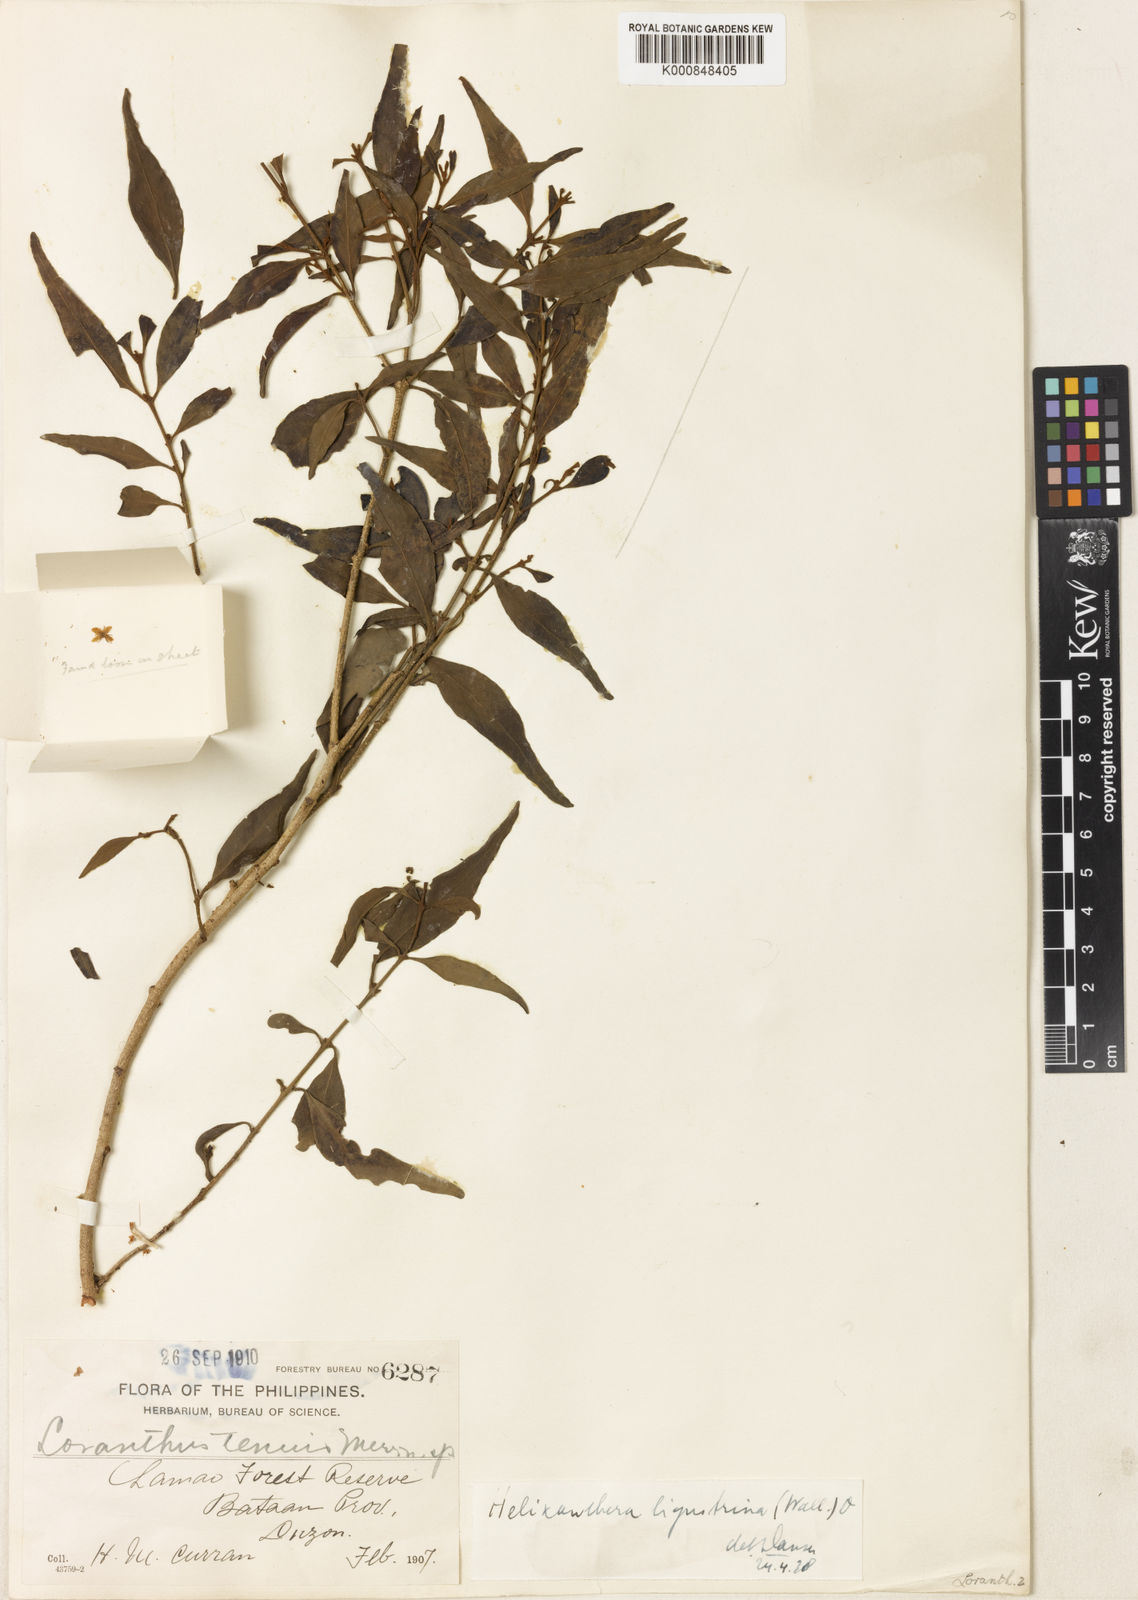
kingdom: Plantae
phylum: Tracheophyta
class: Magnoliopsida
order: Santalales
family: Loranthaceae
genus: Helixanthera
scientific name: Helixanthera ligustrina
